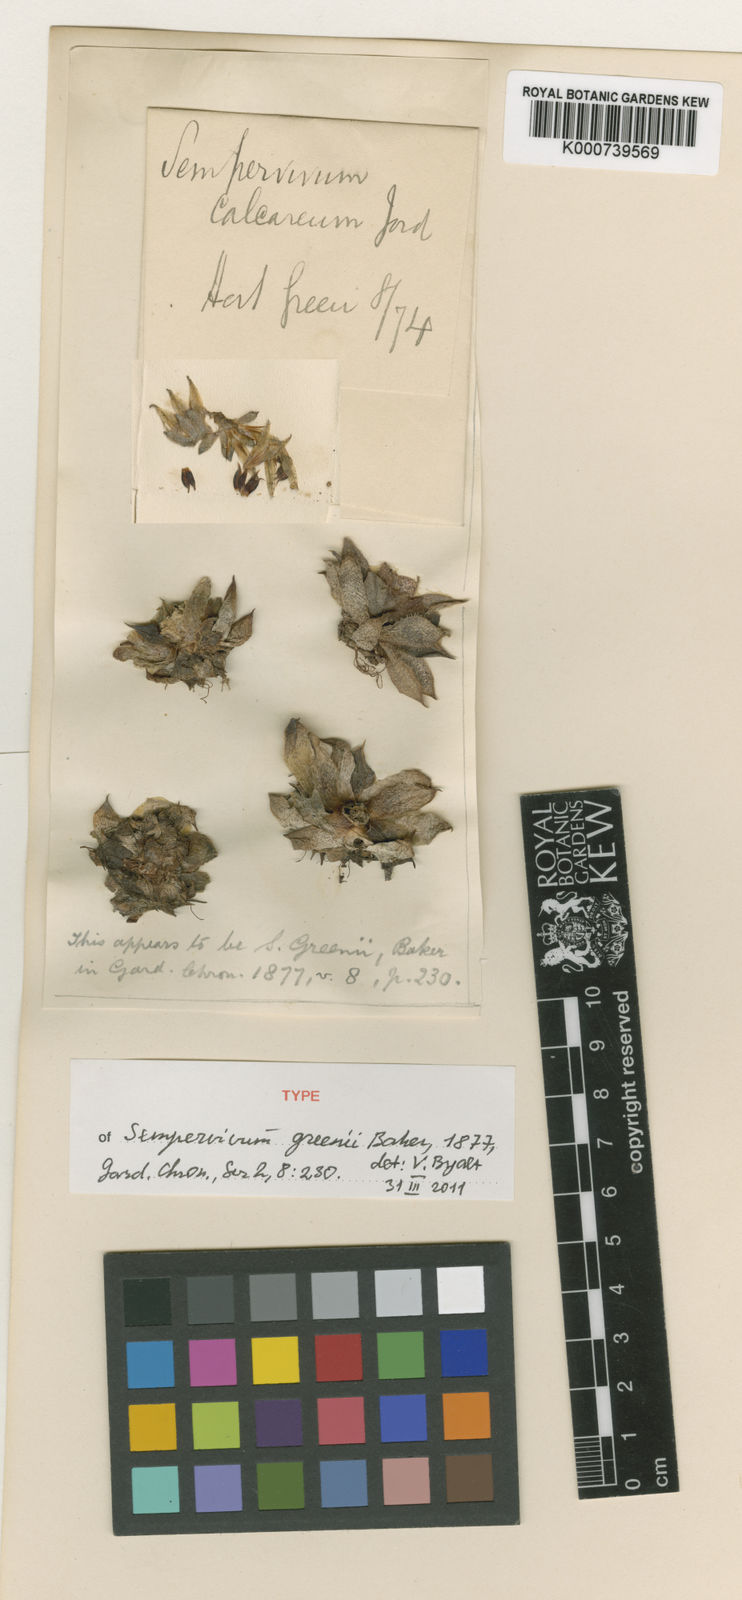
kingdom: Plantae
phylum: Tracheophyta
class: Magnoliopsida
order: Saxifragales
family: Crassulaceae
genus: Sempervivum
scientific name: Sempervivum calcareum
